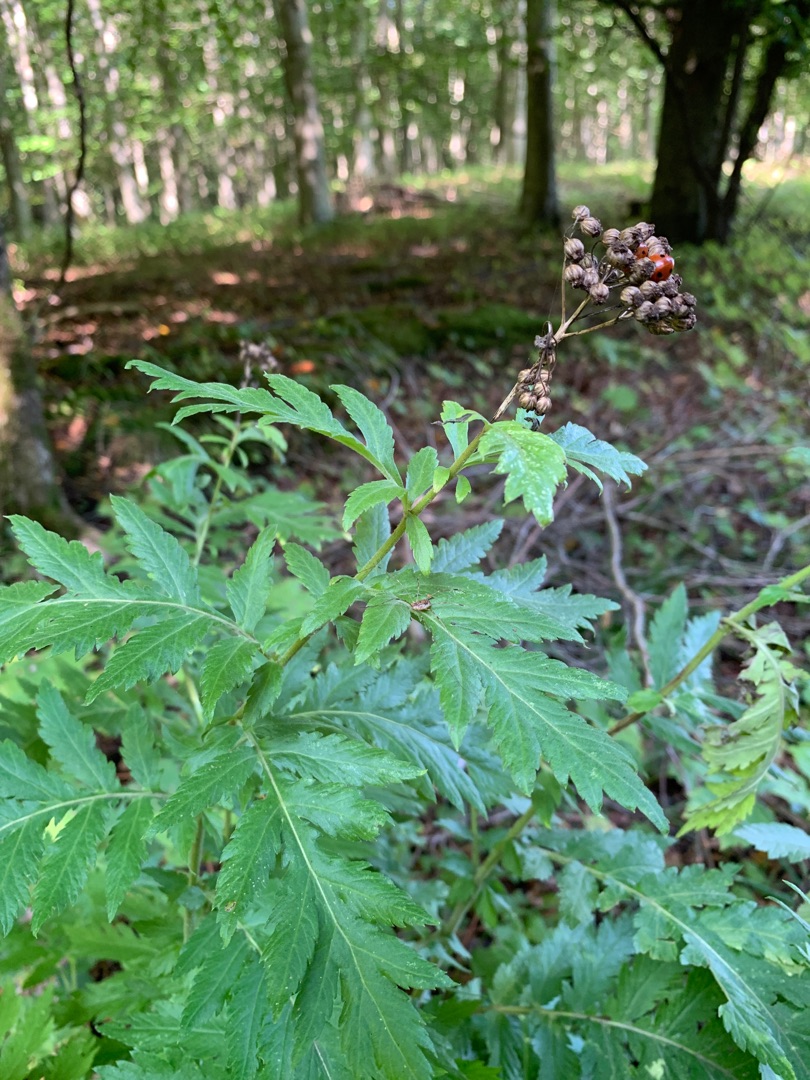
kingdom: Plantae
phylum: Tracheophyta
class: Magnoliopsida
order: Asterales
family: Asteraceae
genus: Tanacetum
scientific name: Tanacetum macrophyllum
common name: Røllike-matrem
